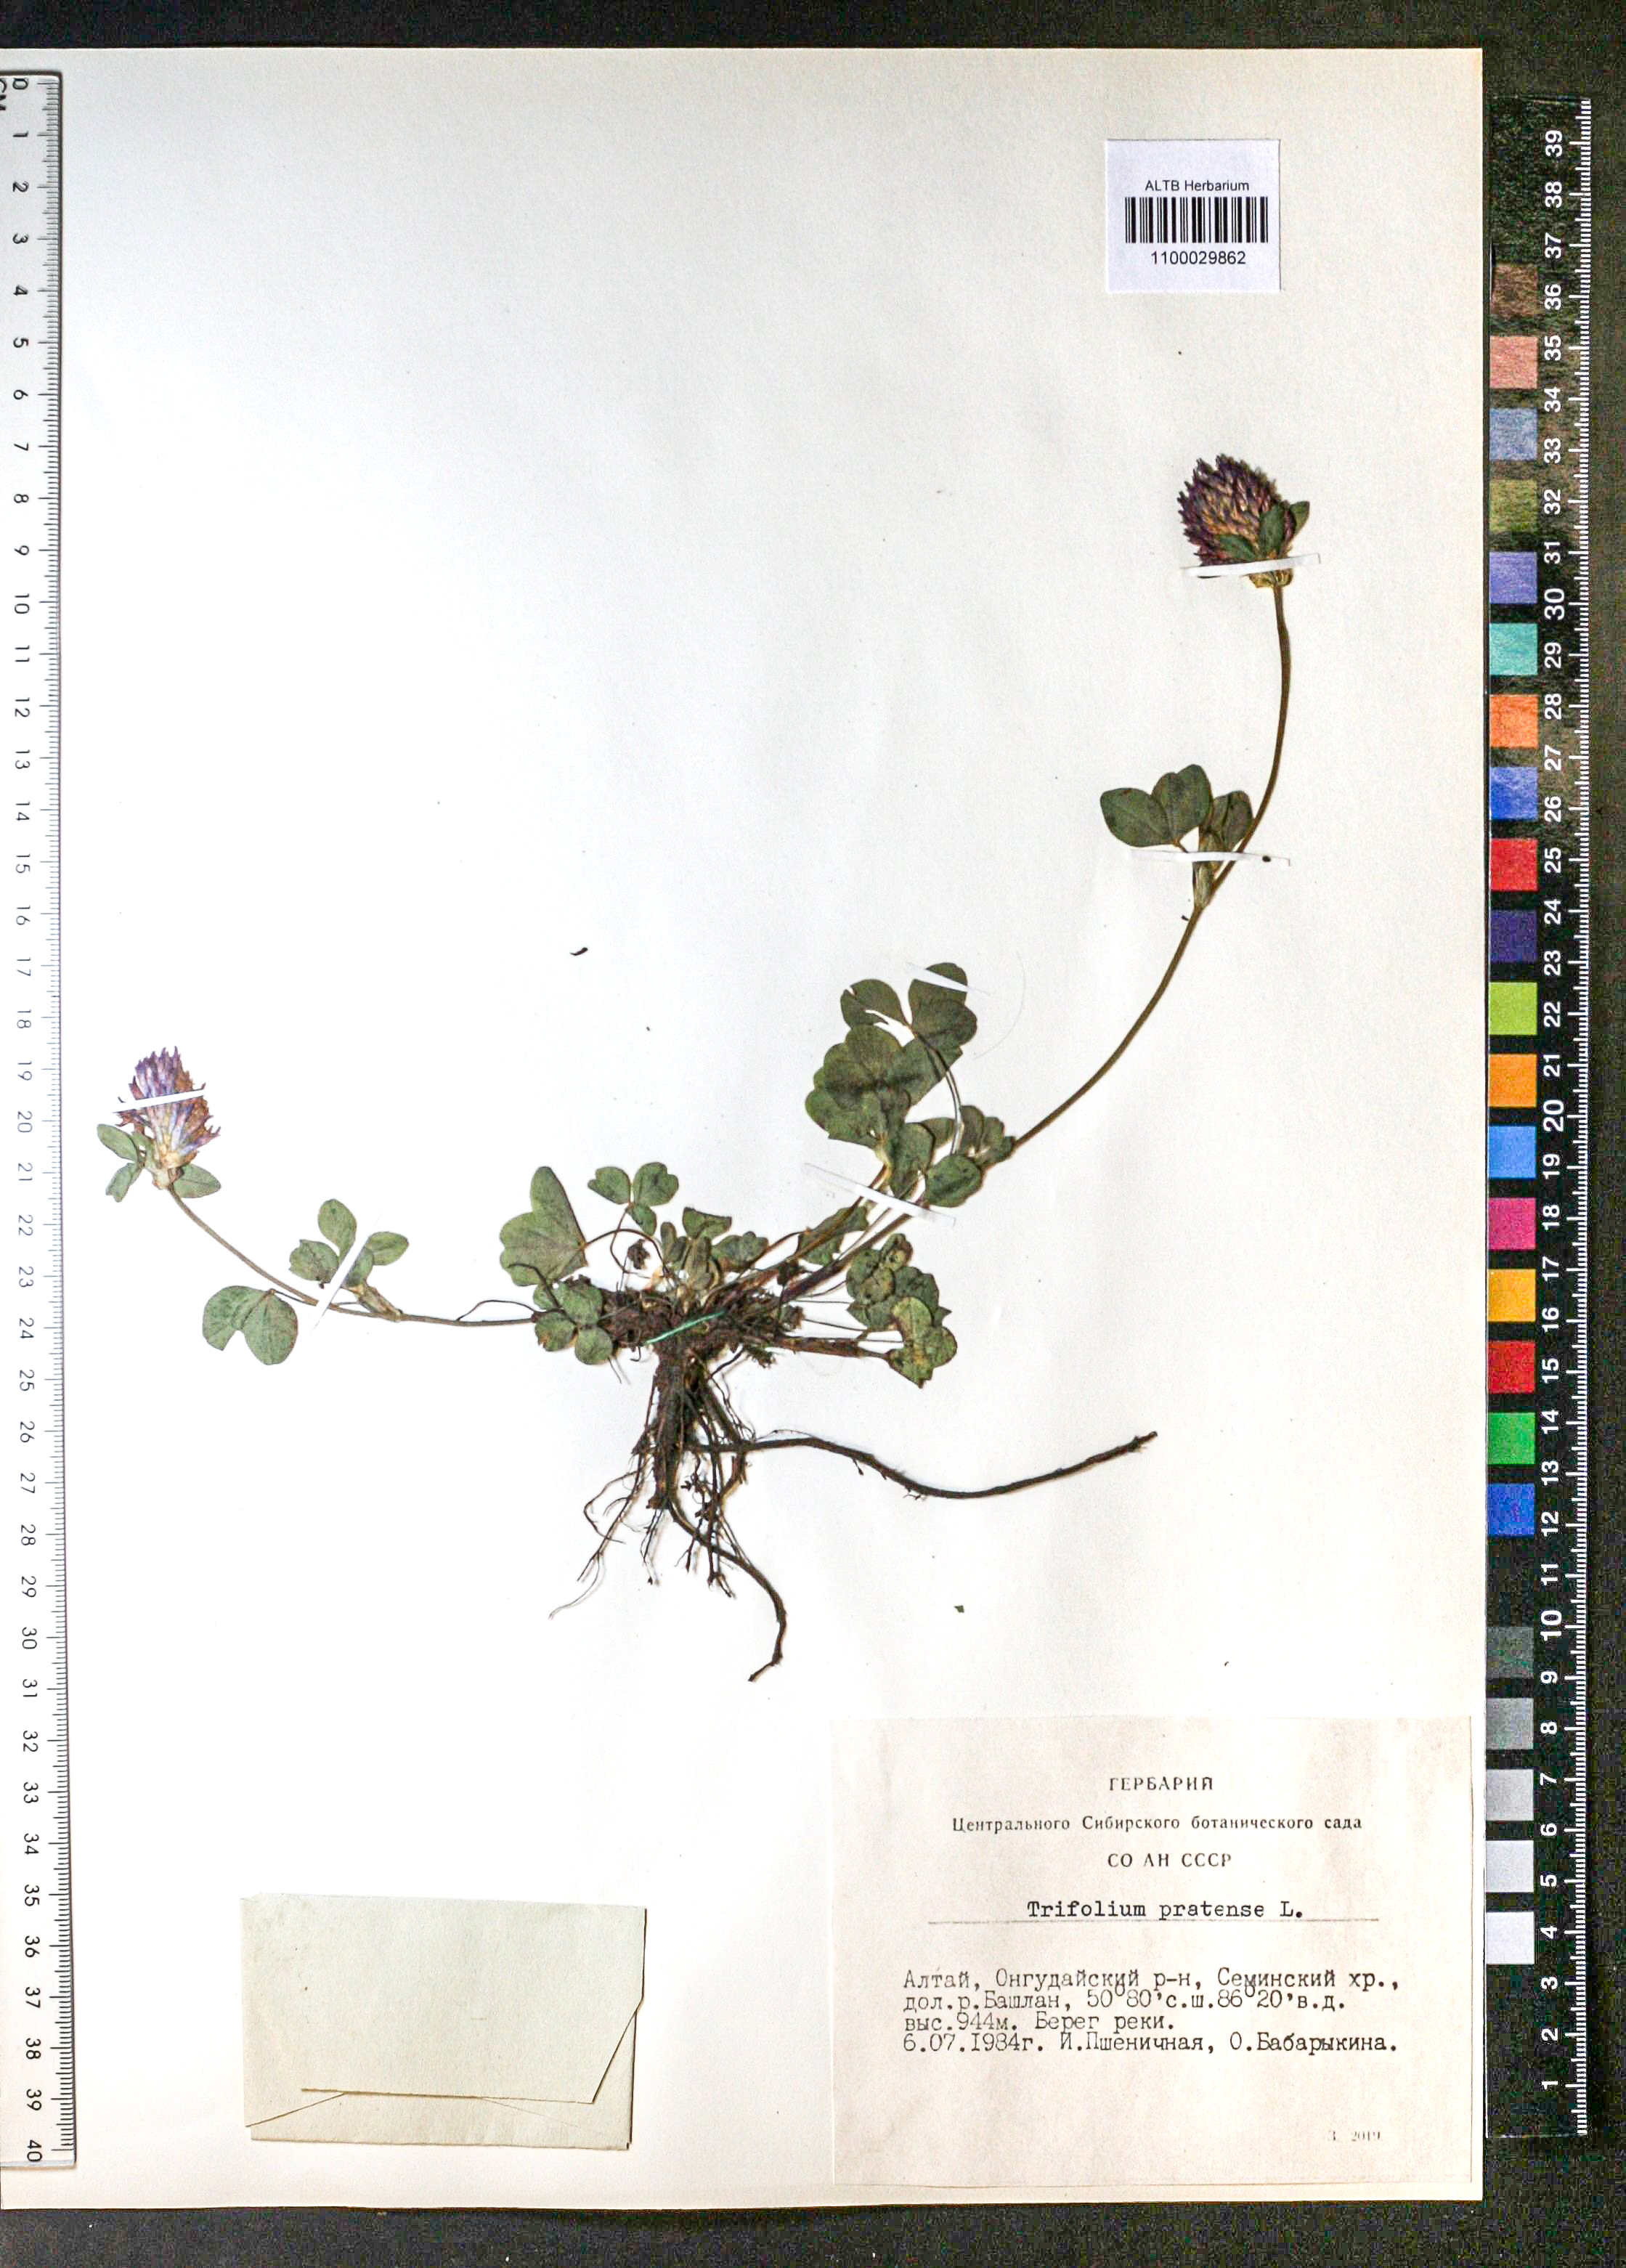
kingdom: Plantae
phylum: Tracheophyta
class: Magnoliopsida
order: Fabales
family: Fabaceae
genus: Trifolium
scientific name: Trifolium pratense
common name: Red clover
